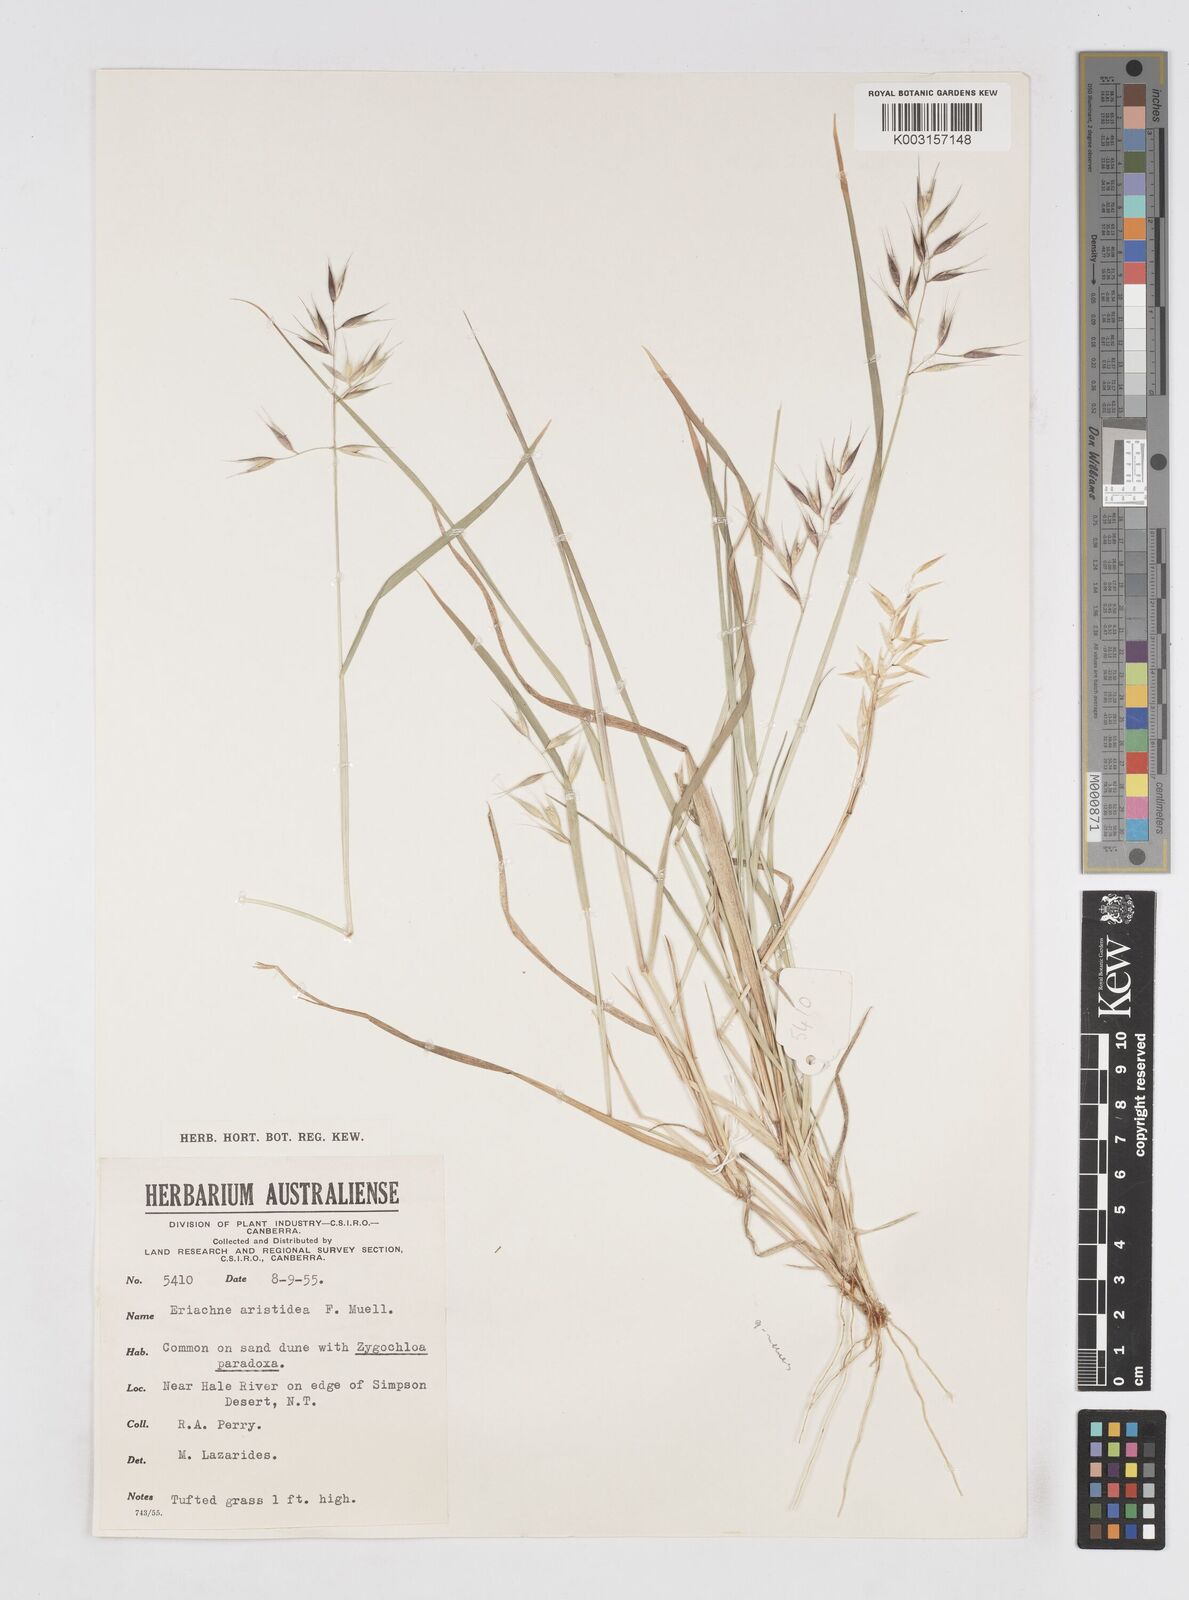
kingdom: Plantae
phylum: Tracheophyta
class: Liliopsida
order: Poales
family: Poaceae
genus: Eriachne
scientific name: Eriachne aristidea
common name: Three-awn wanderrie grass
